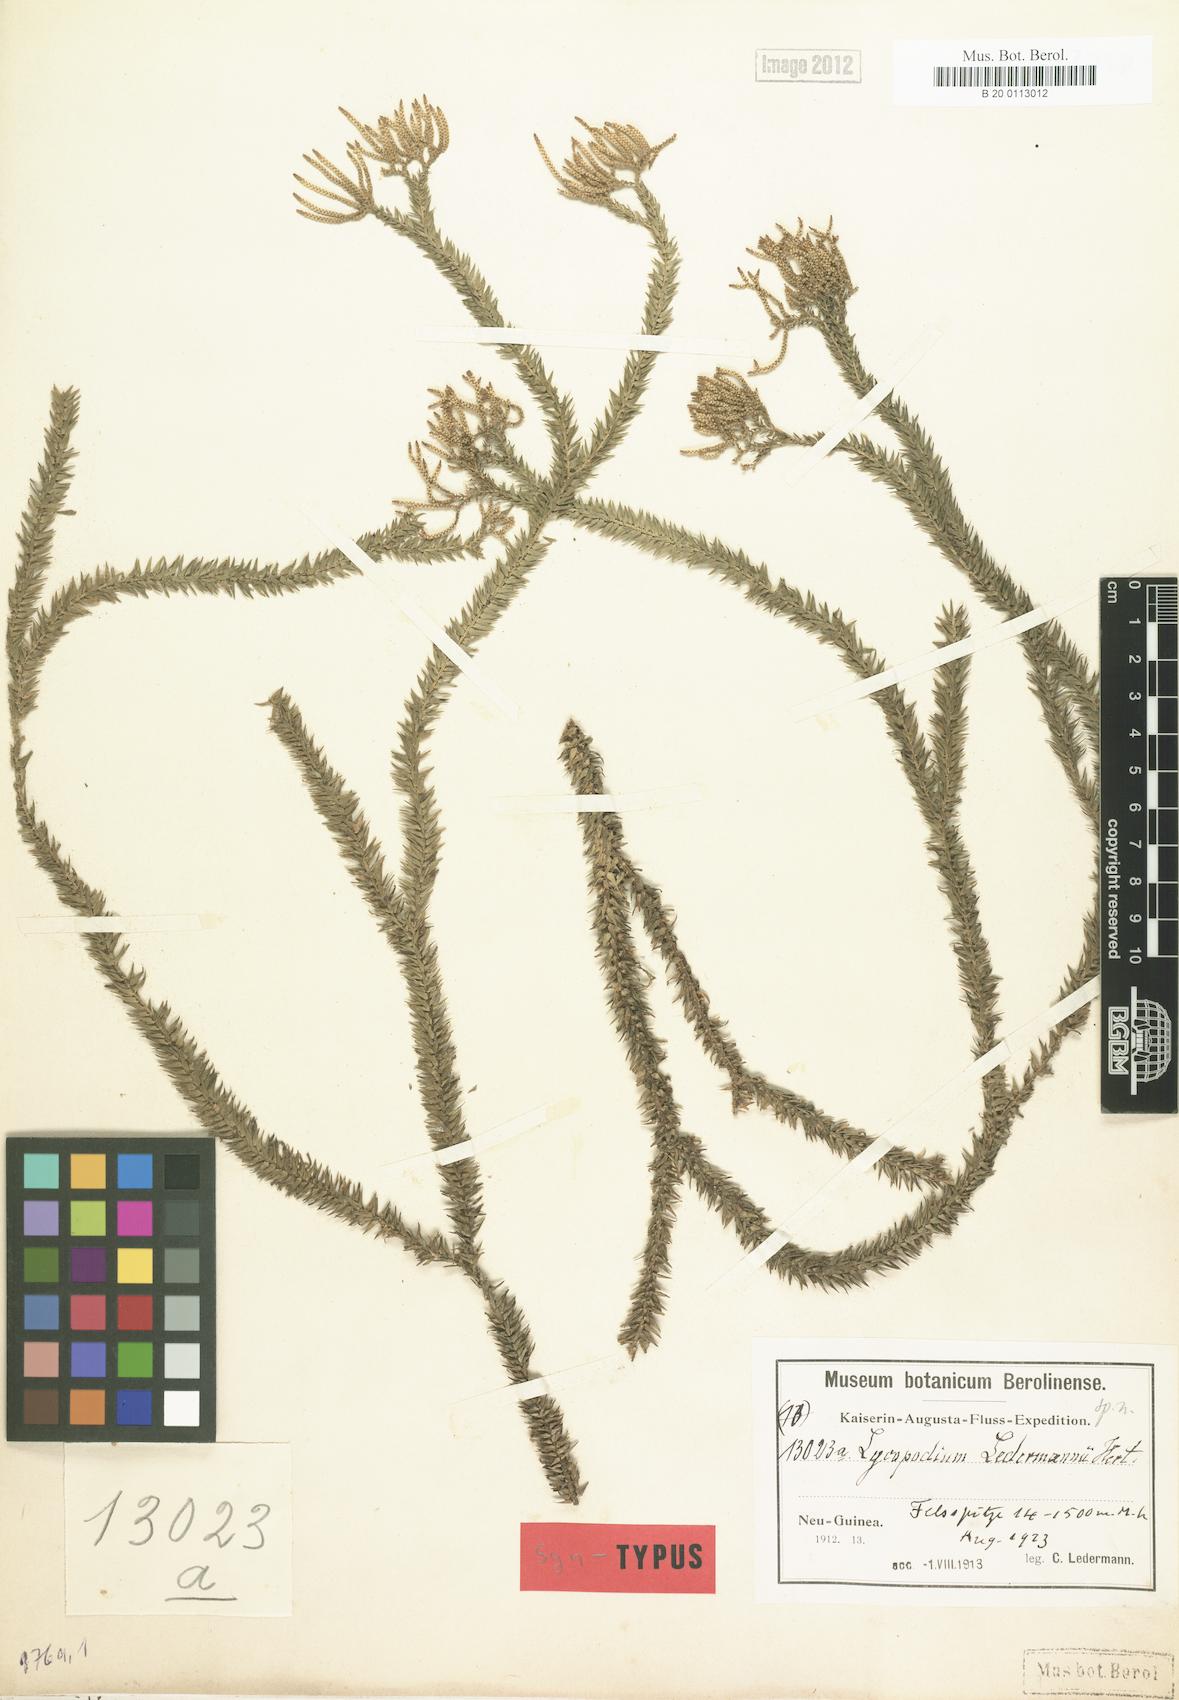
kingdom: Plantae
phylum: Tracheophyta
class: Lycopodiopsida
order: Lycopodiales
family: Lycopodiaceae
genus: Phlegmariurus
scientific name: Phlegmariurus ledermannii
